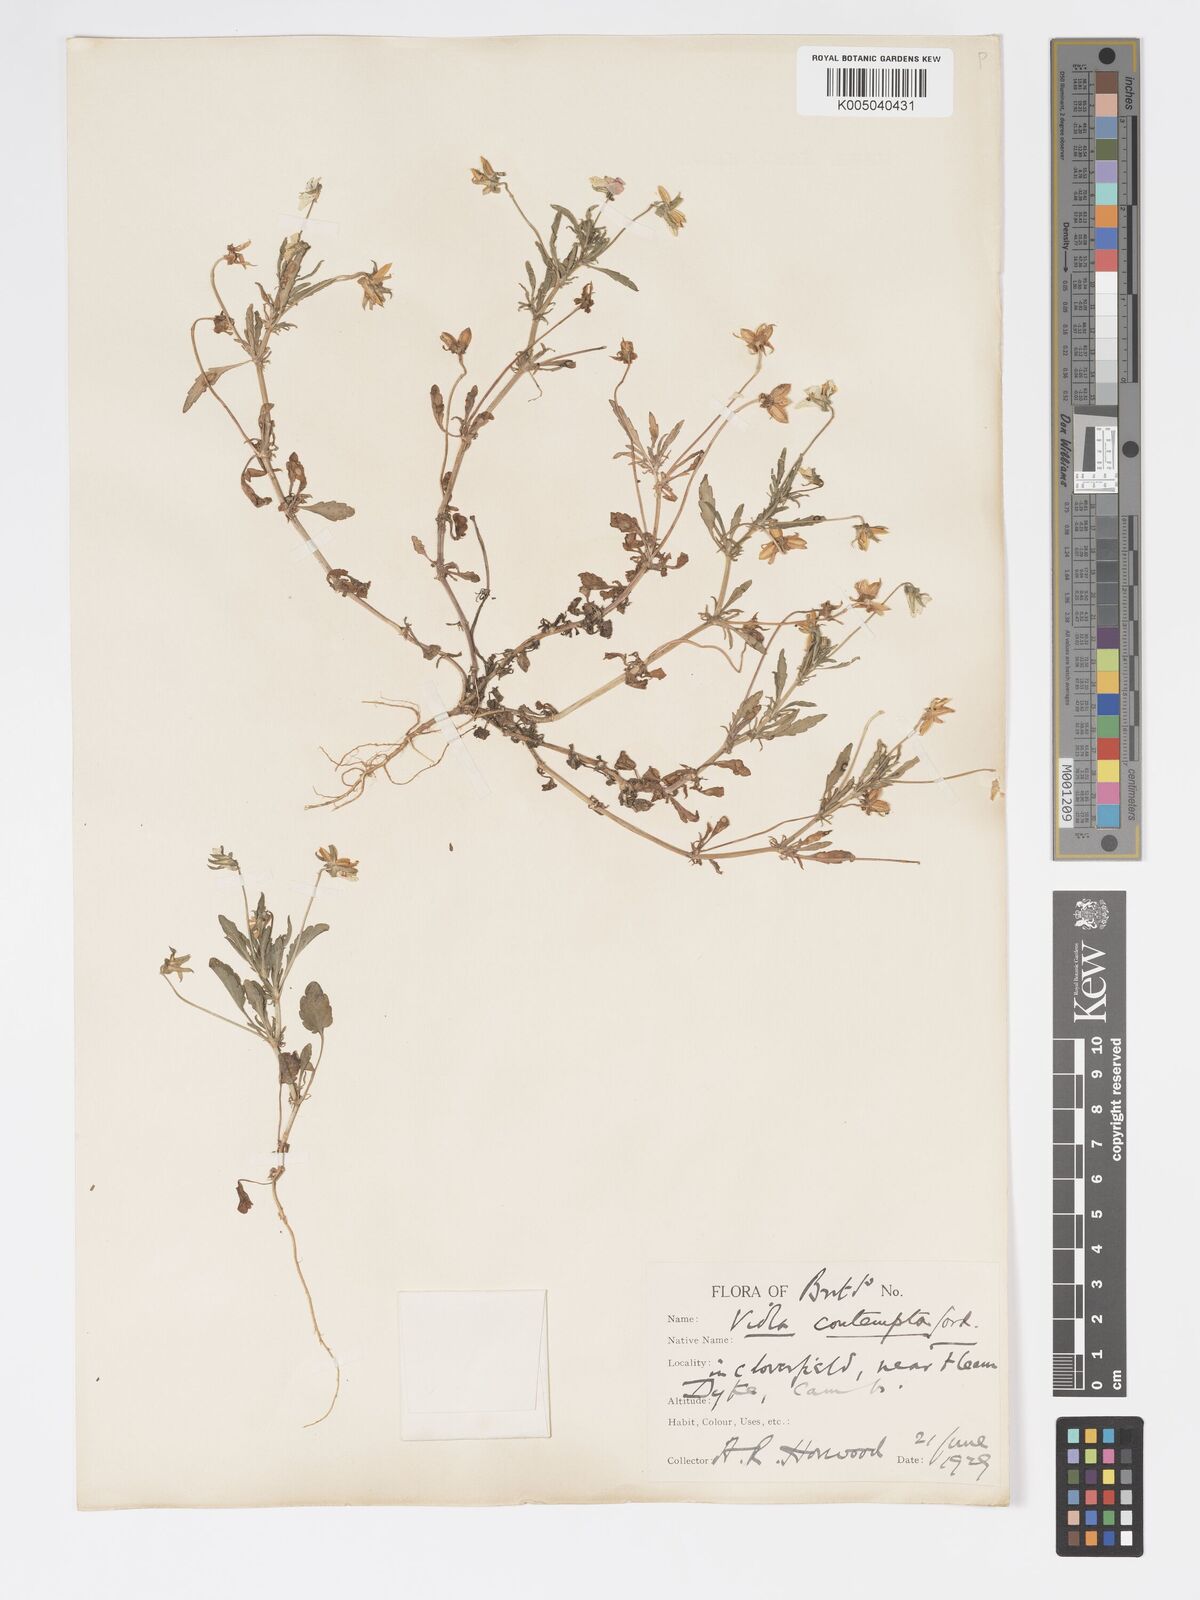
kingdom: Plantae
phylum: Tracheophyta
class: Magnoliopsida
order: Malpighiales
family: Violaceae
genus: Viola
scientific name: Viola arvensis
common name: Field pansy
